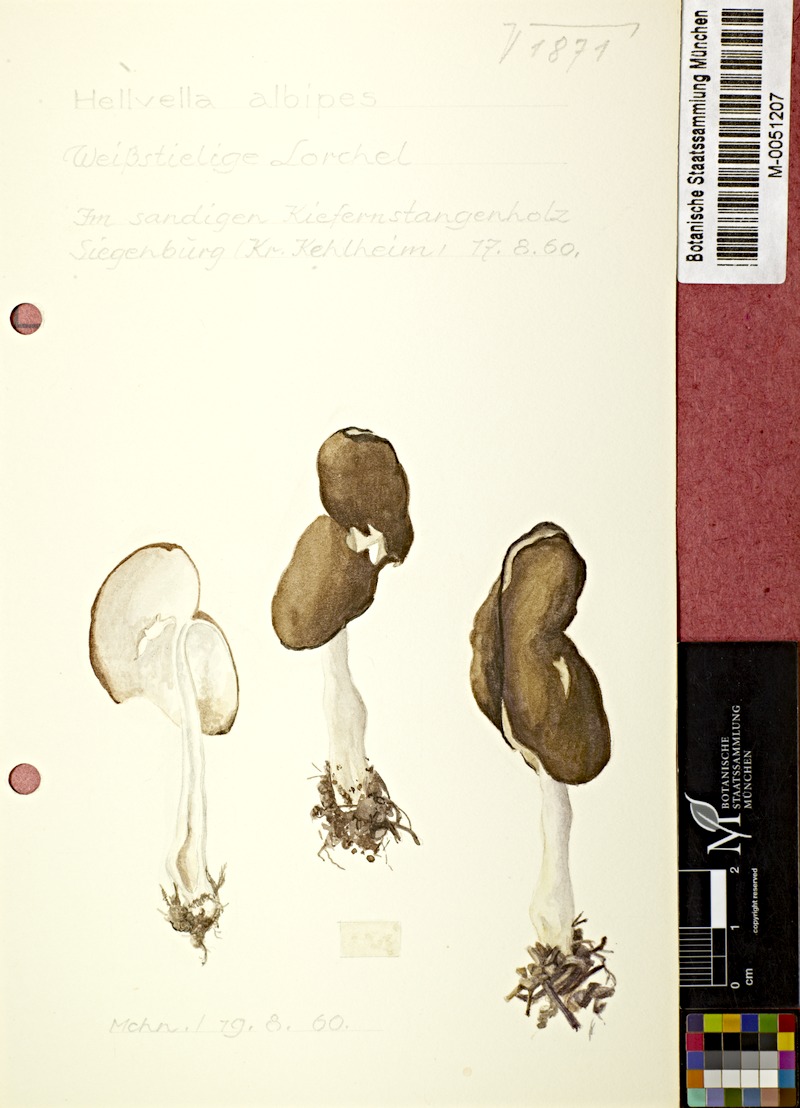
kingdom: Fungi
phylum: Ascomycota
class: Pezizomycetes
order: Pezizales
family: Helvellaceae
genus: Helvella
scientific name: Helvella albipes
